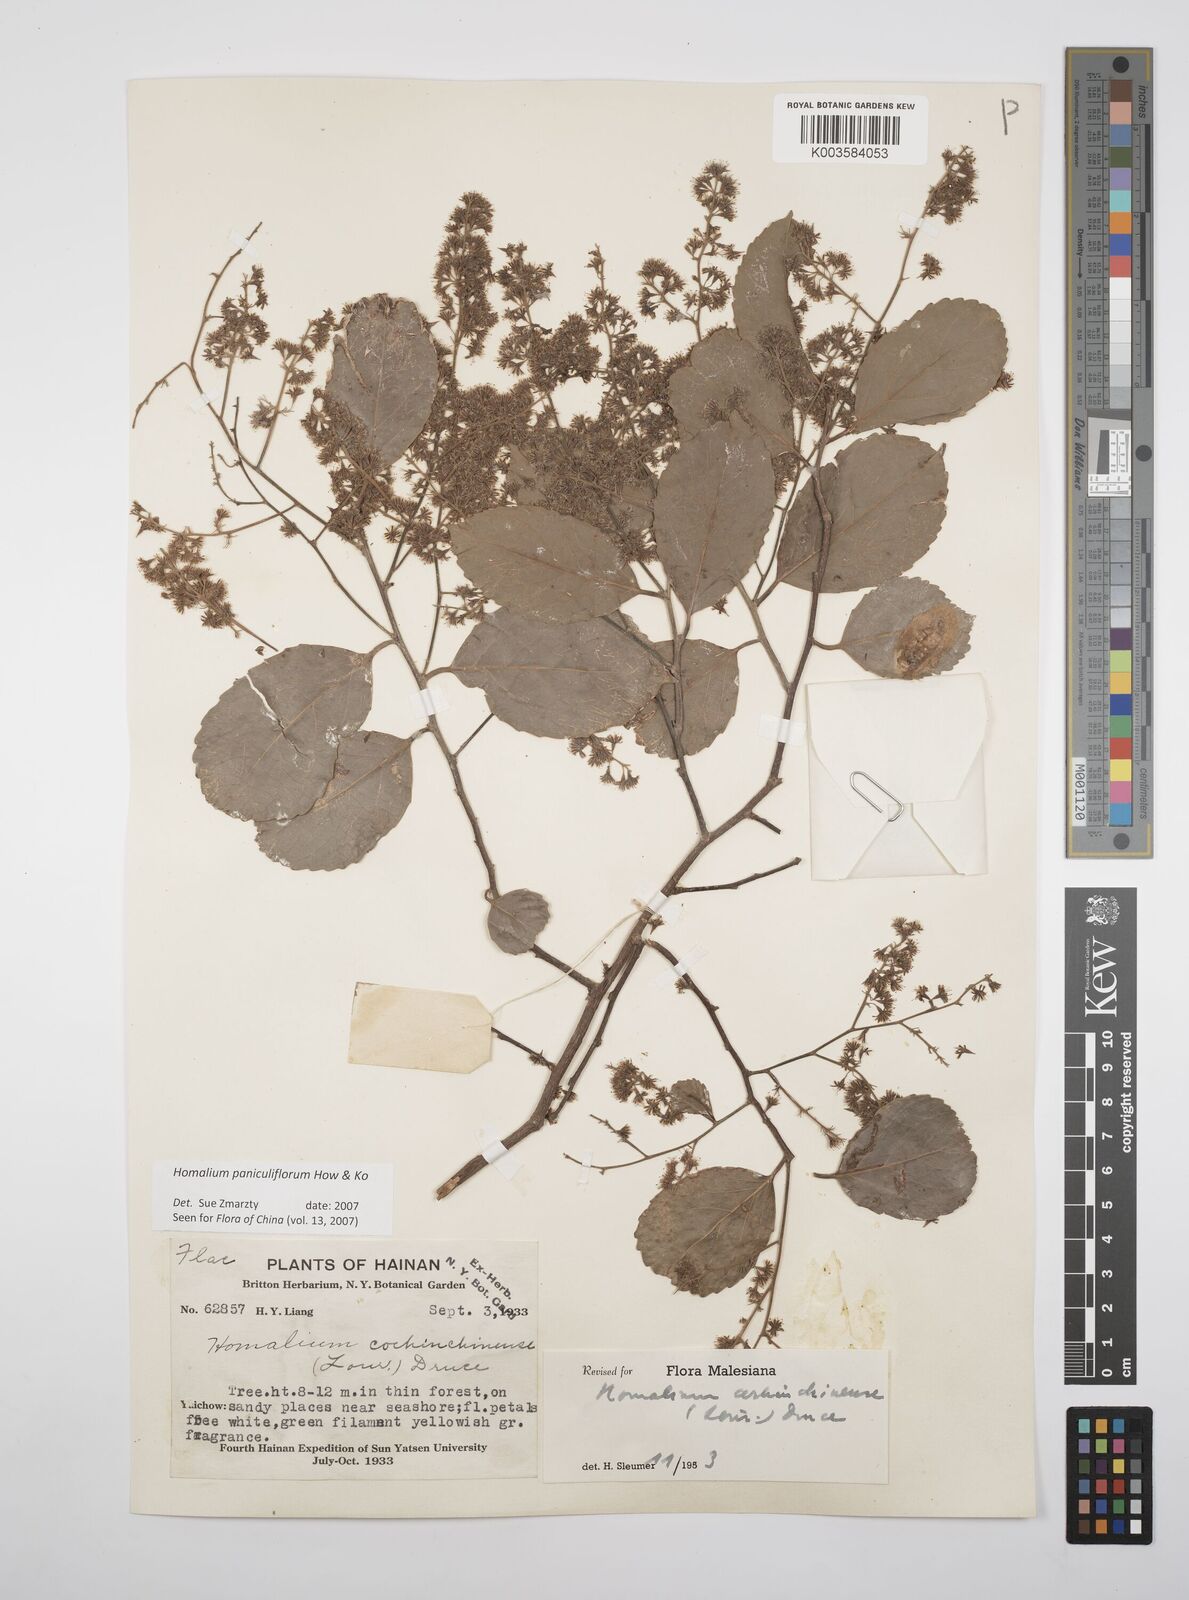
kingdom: Plantae
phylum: Tracheophyta
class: Magnoliopsida
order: Malpighiales
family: Salicaceae
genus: Homalium
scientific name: Homalium paniculiflorum
